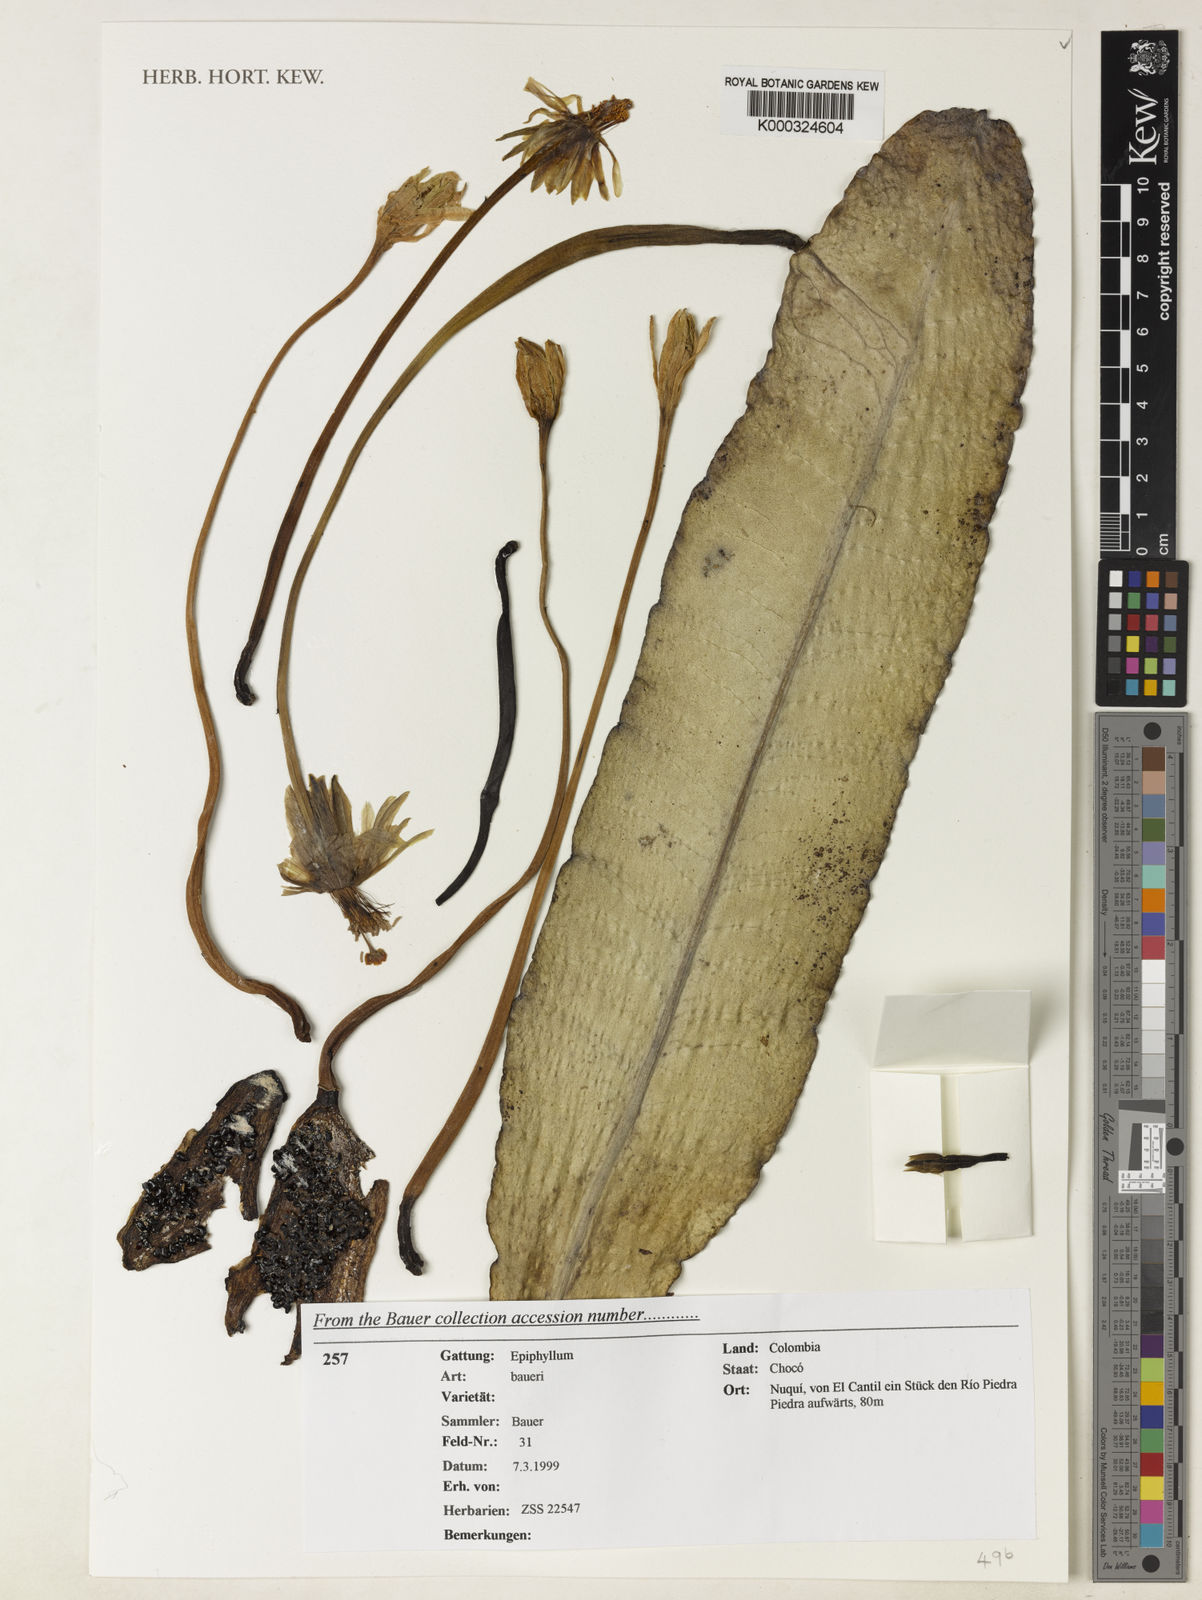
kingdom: Plantae
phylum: Tracheophyta
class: Magnoliopsida
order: Caryophyllales
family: Cactaceae
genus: Epiphyllum
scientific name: Epiphyllum baueri
